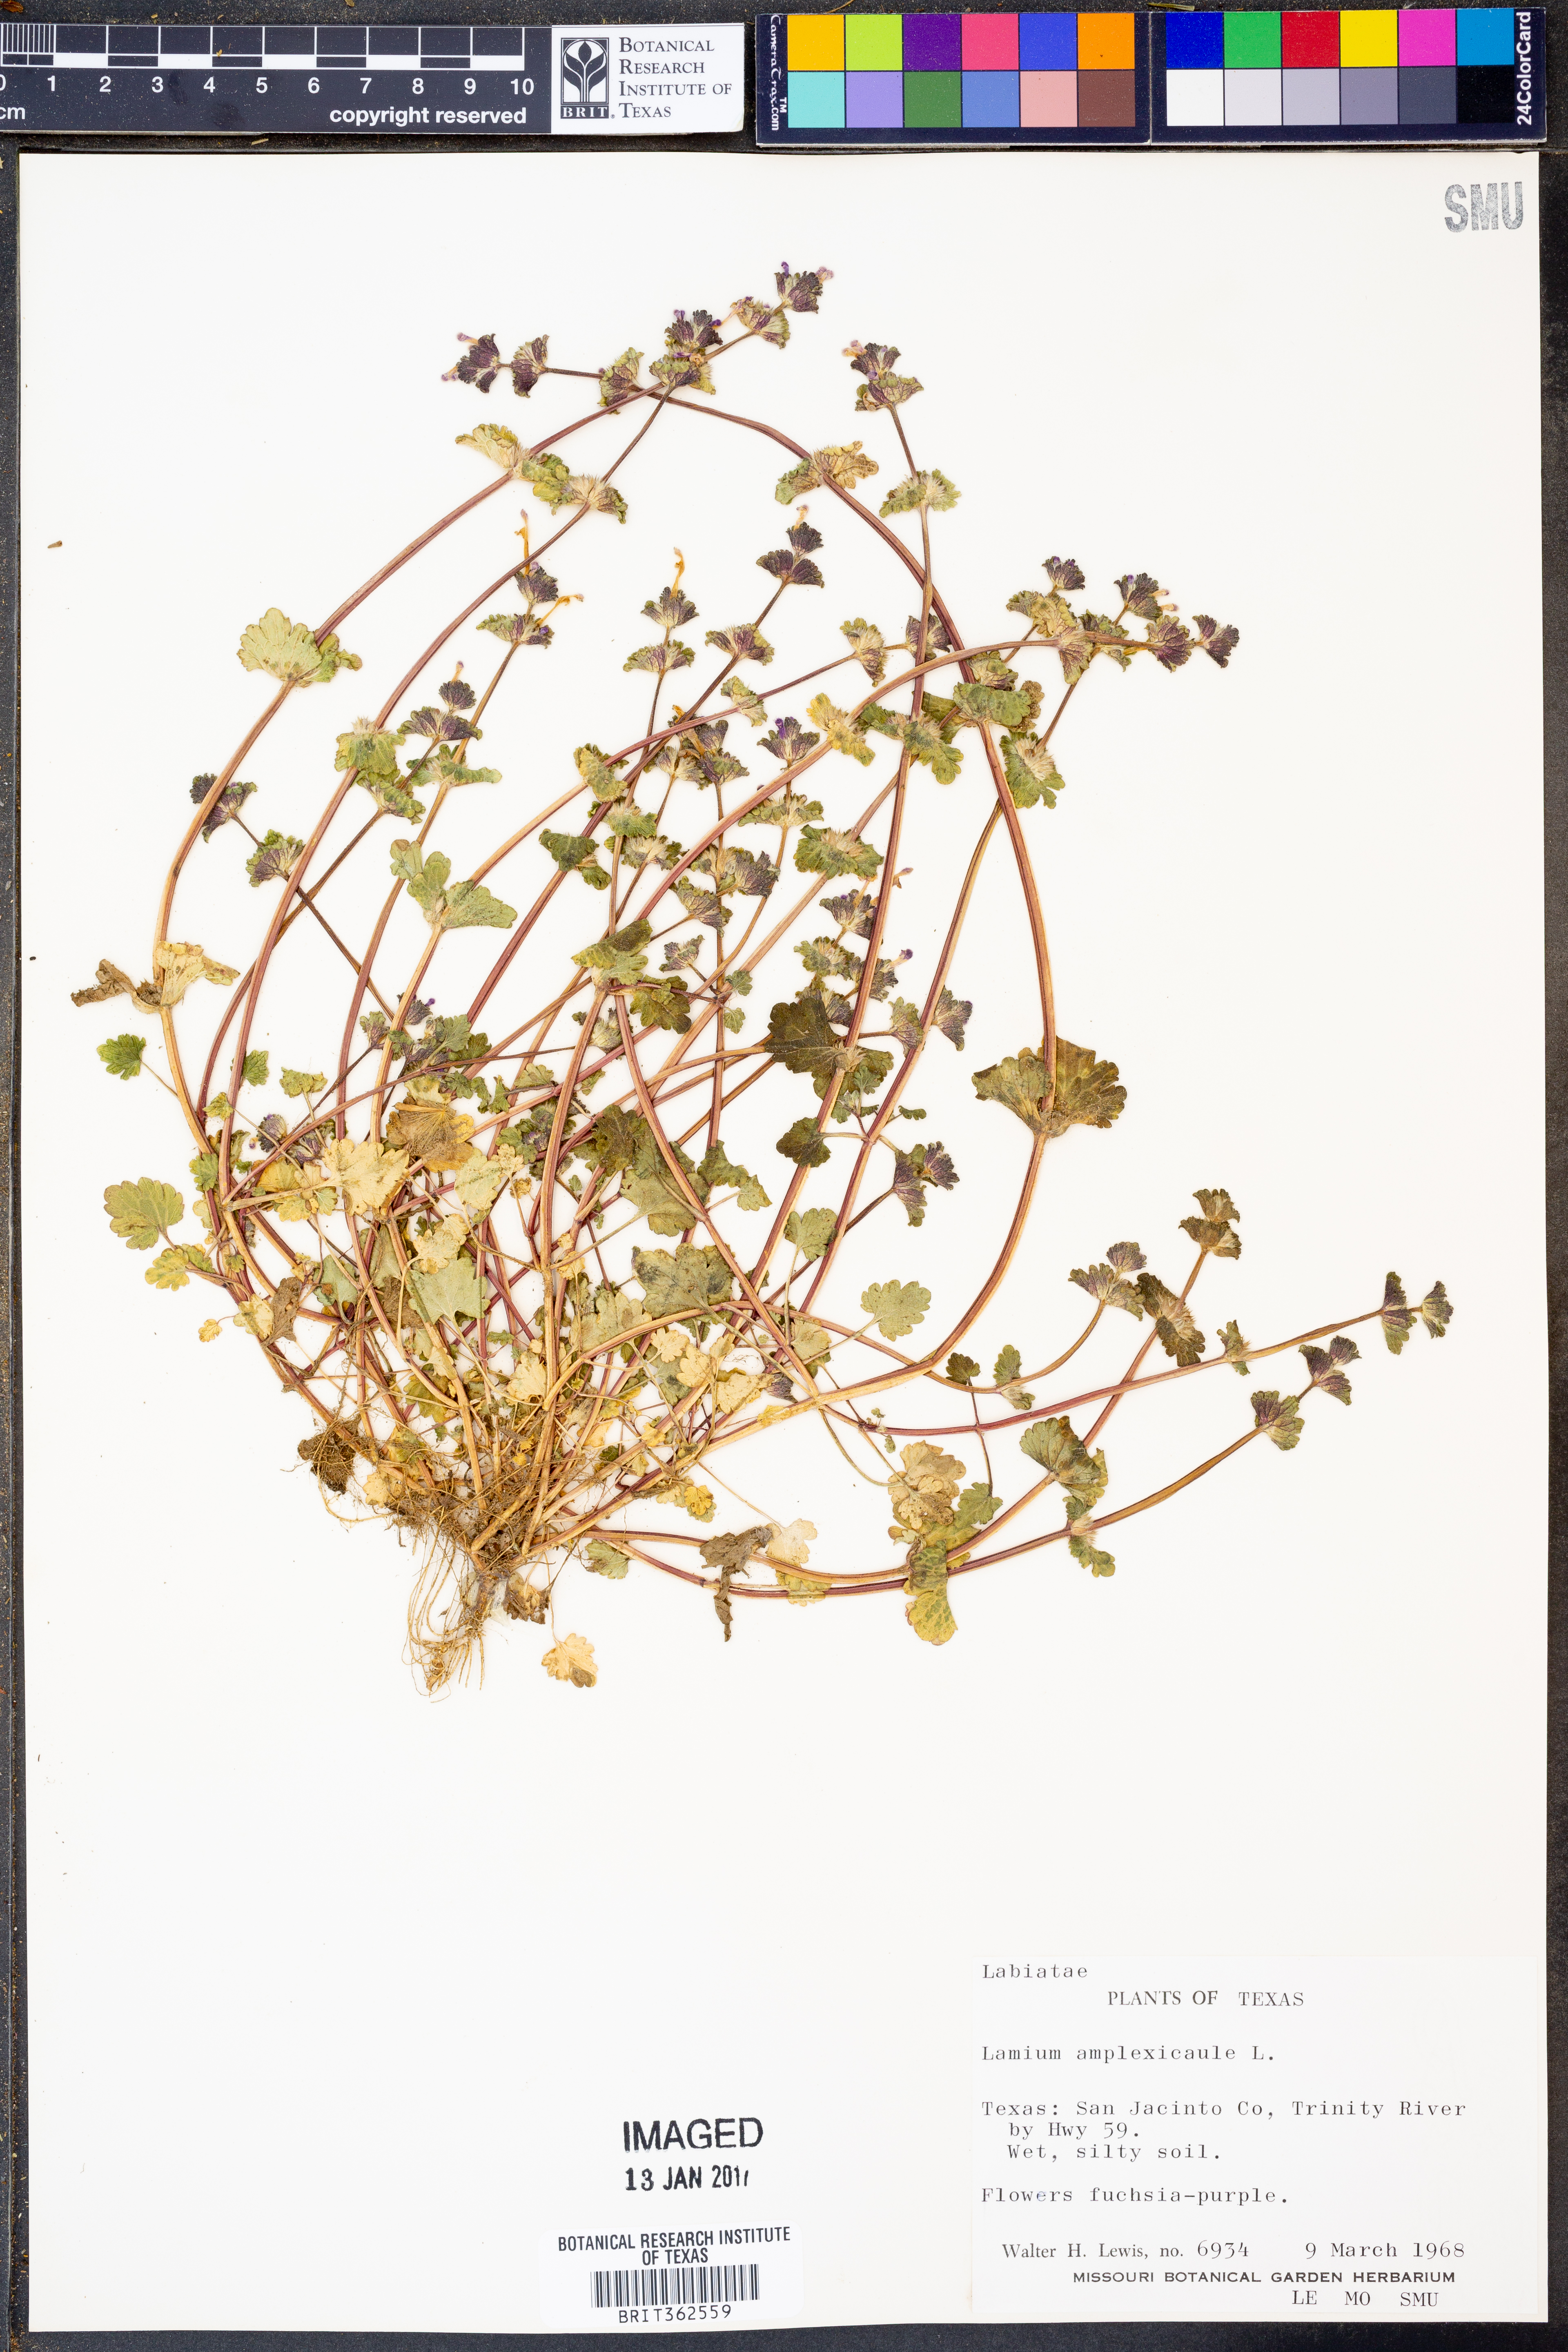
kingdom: Plantae
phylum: Tracheophyta
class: Magnoliopsida
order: Lamiales
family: Lamiaceae
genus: Lamium
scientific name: Lamium amplexicaule
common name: Henbit dead-nettle
